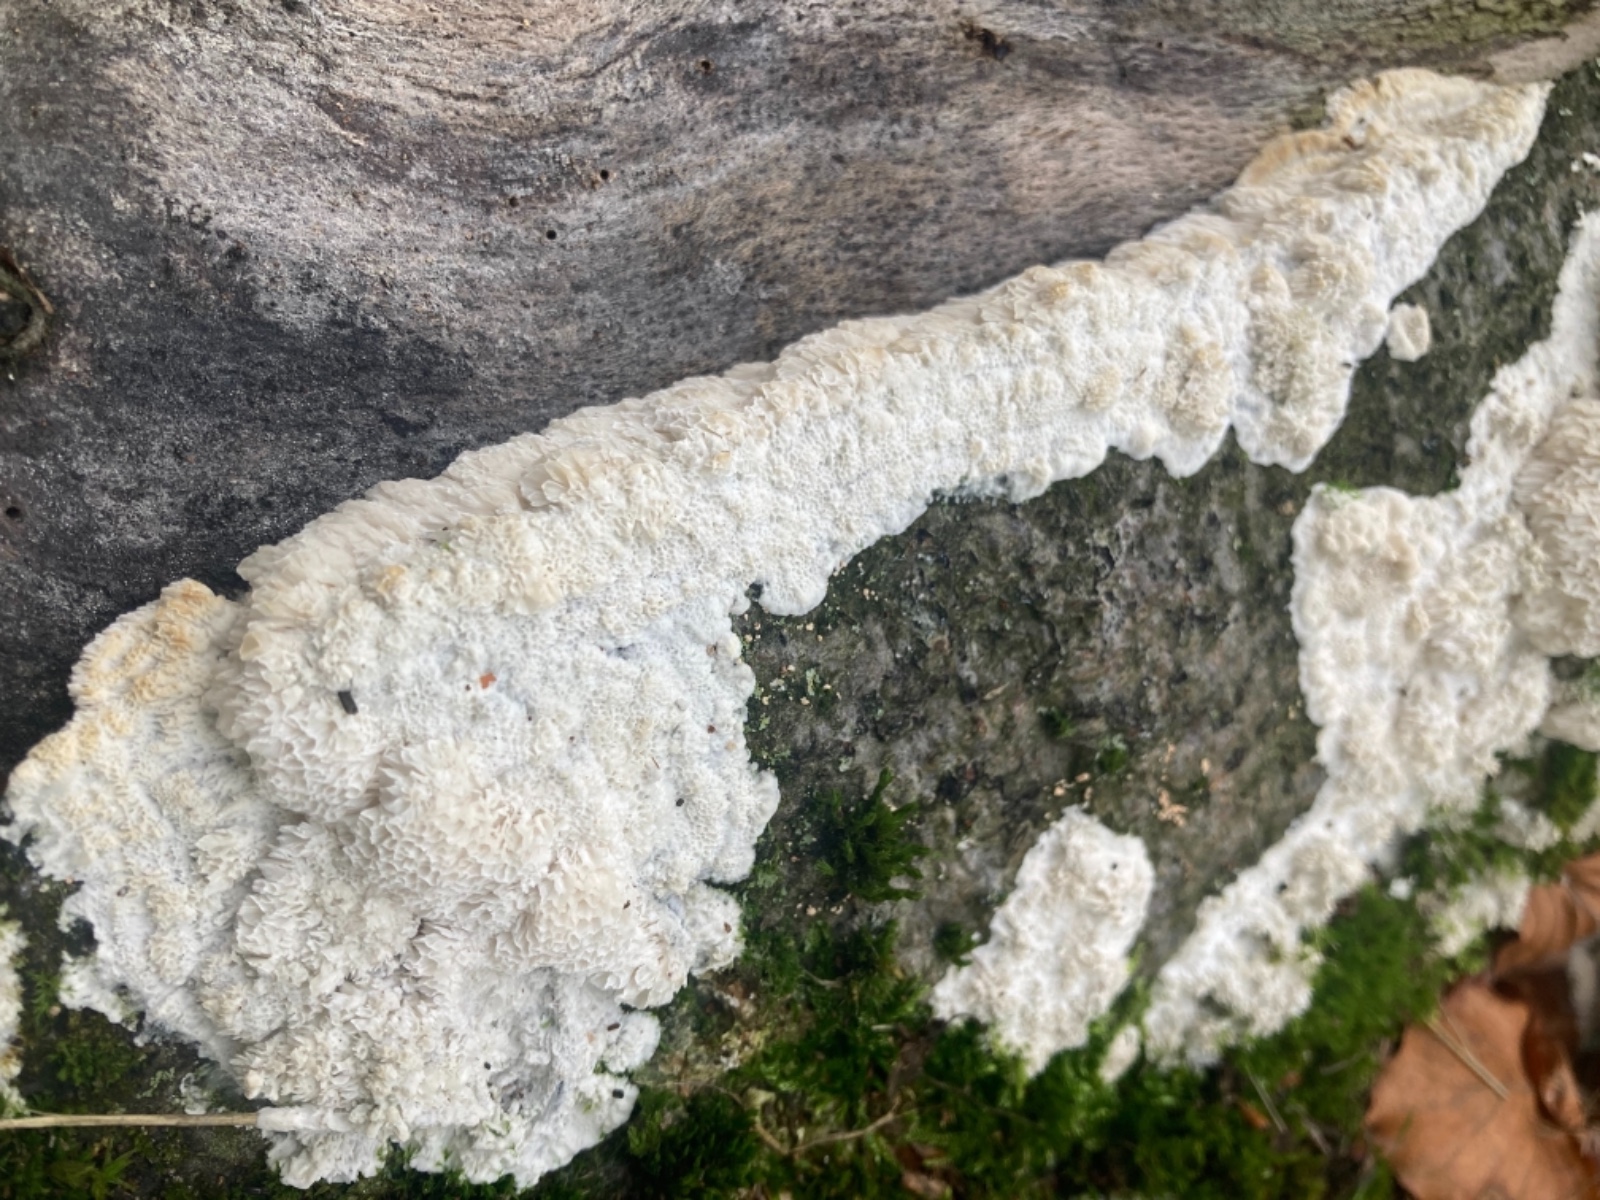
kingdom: Fungi
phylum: Basidiomycota
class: Agaricomycetes
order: Polyporales
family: Irpicaceae
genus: Irpex
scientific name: Irpex latemarginatus
